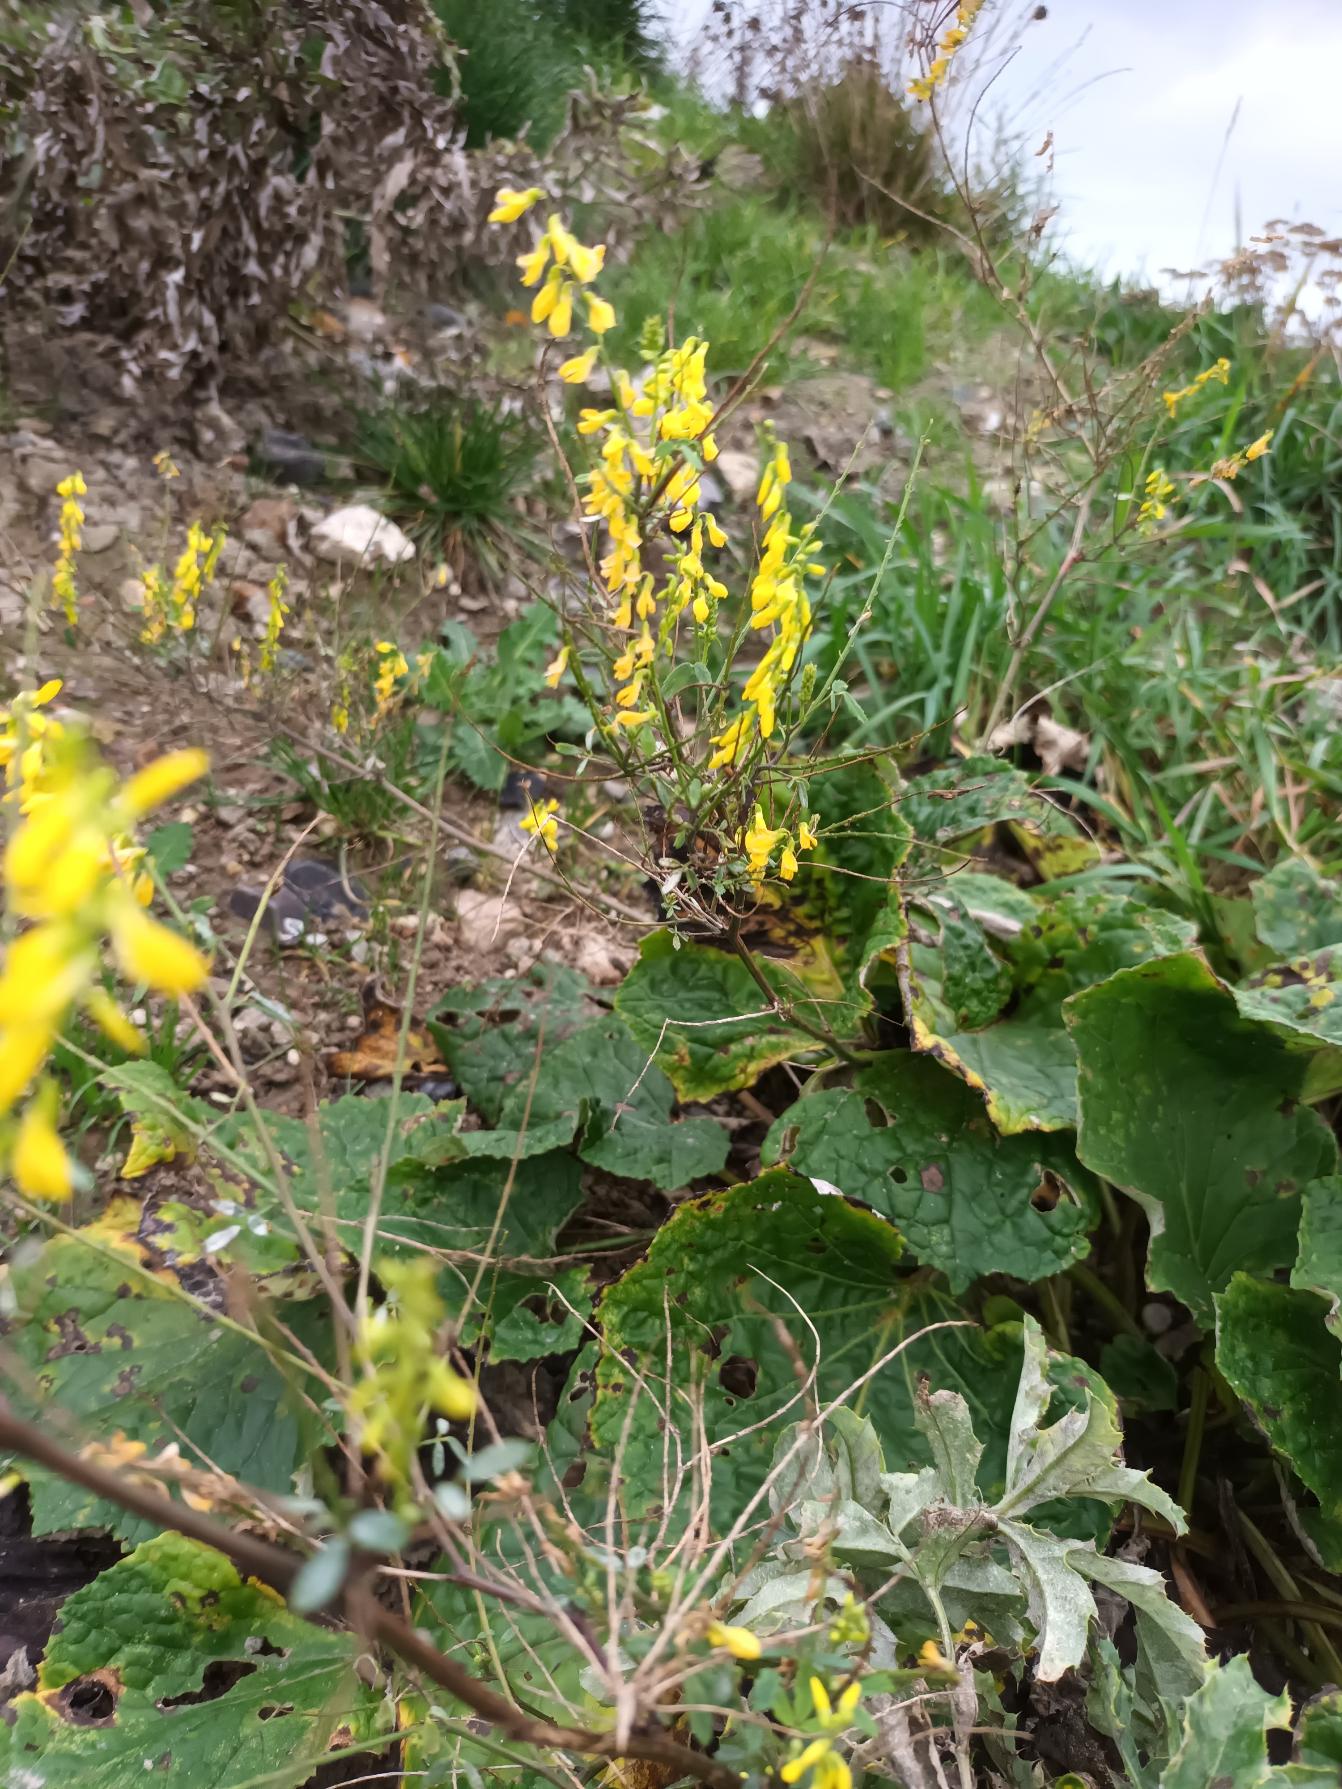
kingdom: Plantae
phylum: Tracheophyta
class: Magnoliopsida
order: Fabales
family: Fabaceae
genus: Melilotus
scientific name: Melilotus altissimus
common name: Høj stenkløver
